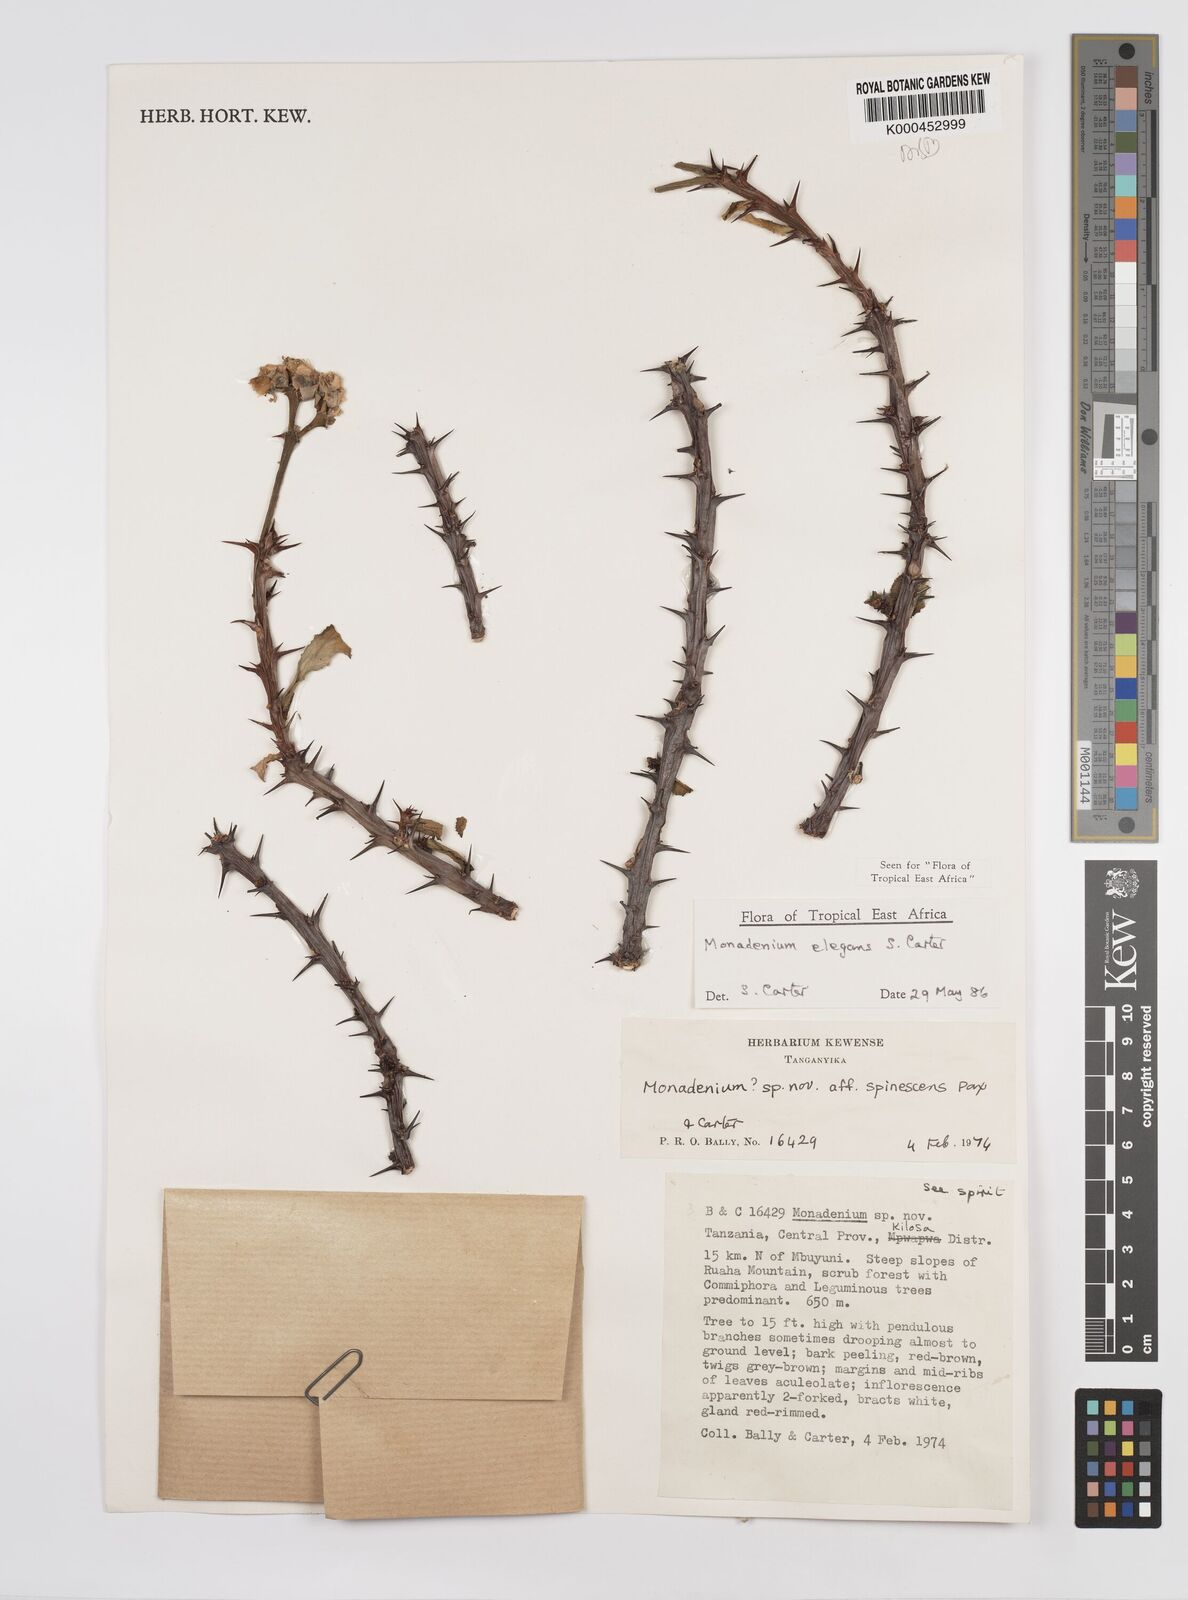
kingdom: Plantae
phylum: Tracheophyta
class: Magnoliopsida
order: Malpighiales
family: Euphorbiaceae
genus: Euphorbia
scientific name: Euphorbia biselegans
